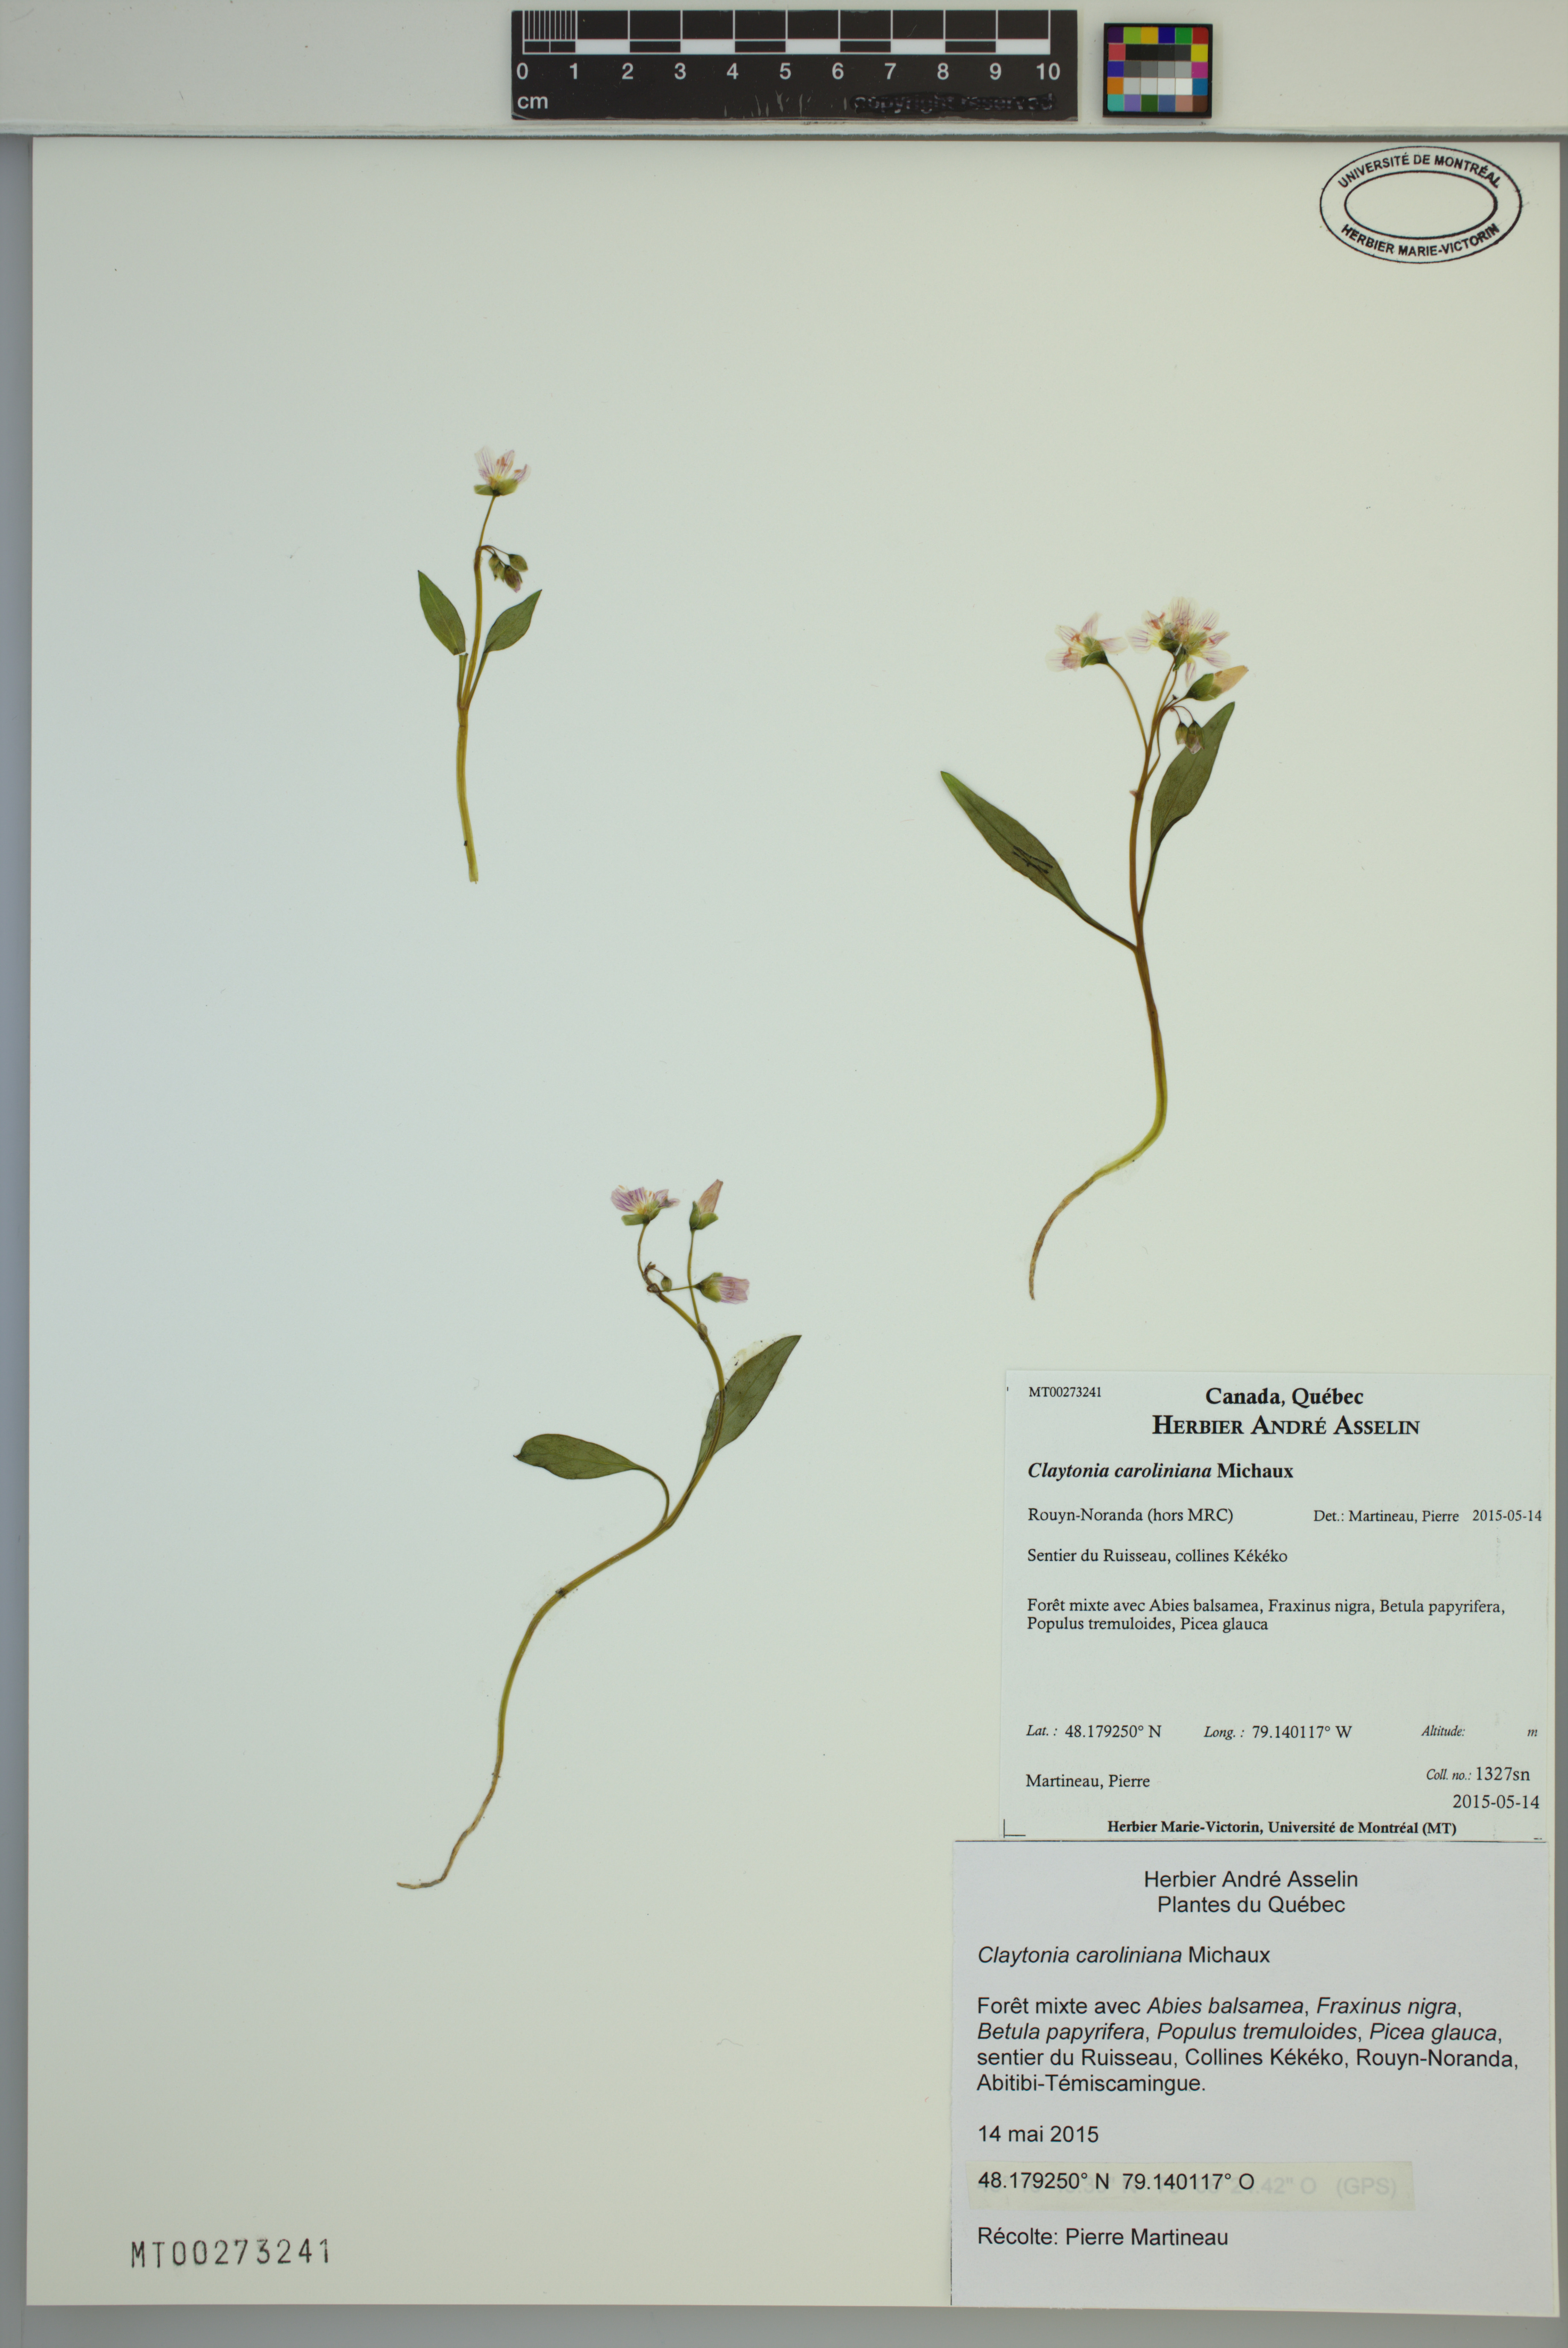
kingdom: Plantae
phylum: Tracheophyta
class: Magnoliopsida
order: Caryophyllales
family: Montiaceae
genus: Claytonia
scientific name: Claytonia caroliniana
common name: Carolina spring beauty
